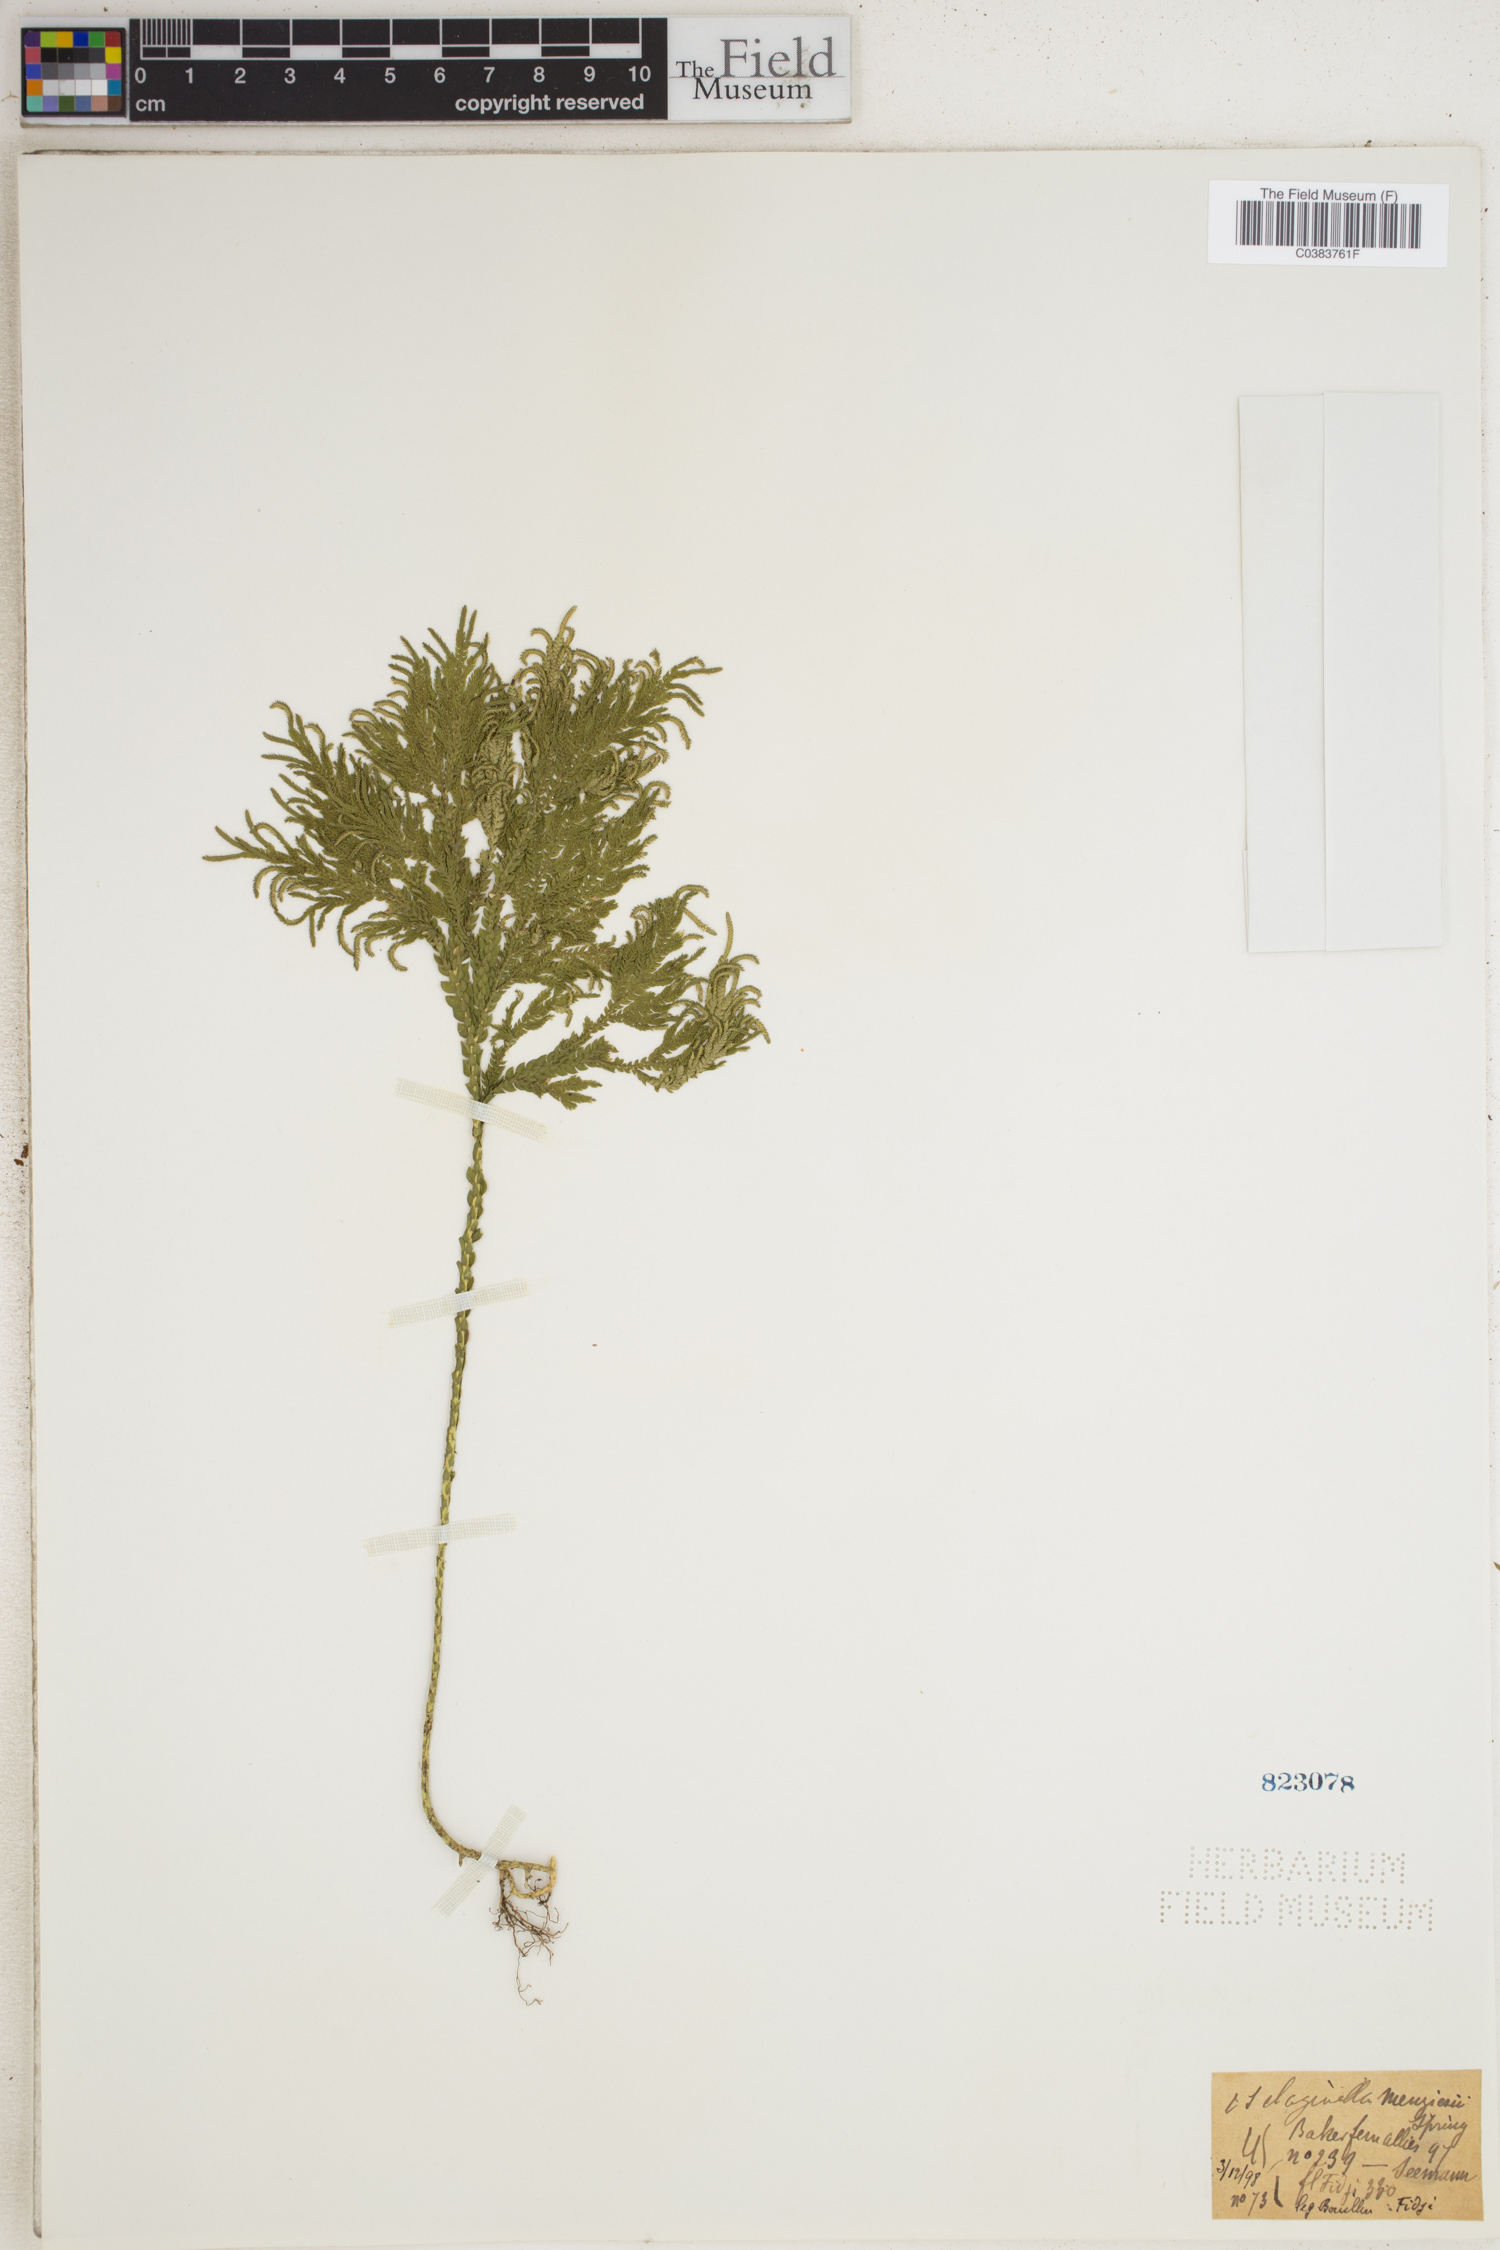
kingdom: Plantae
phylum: Tracheophyta
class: Lycopodiopsida
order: Selaginellales
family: Selaginellaceae
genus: Selaginella
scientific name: Selaginella menziesii
